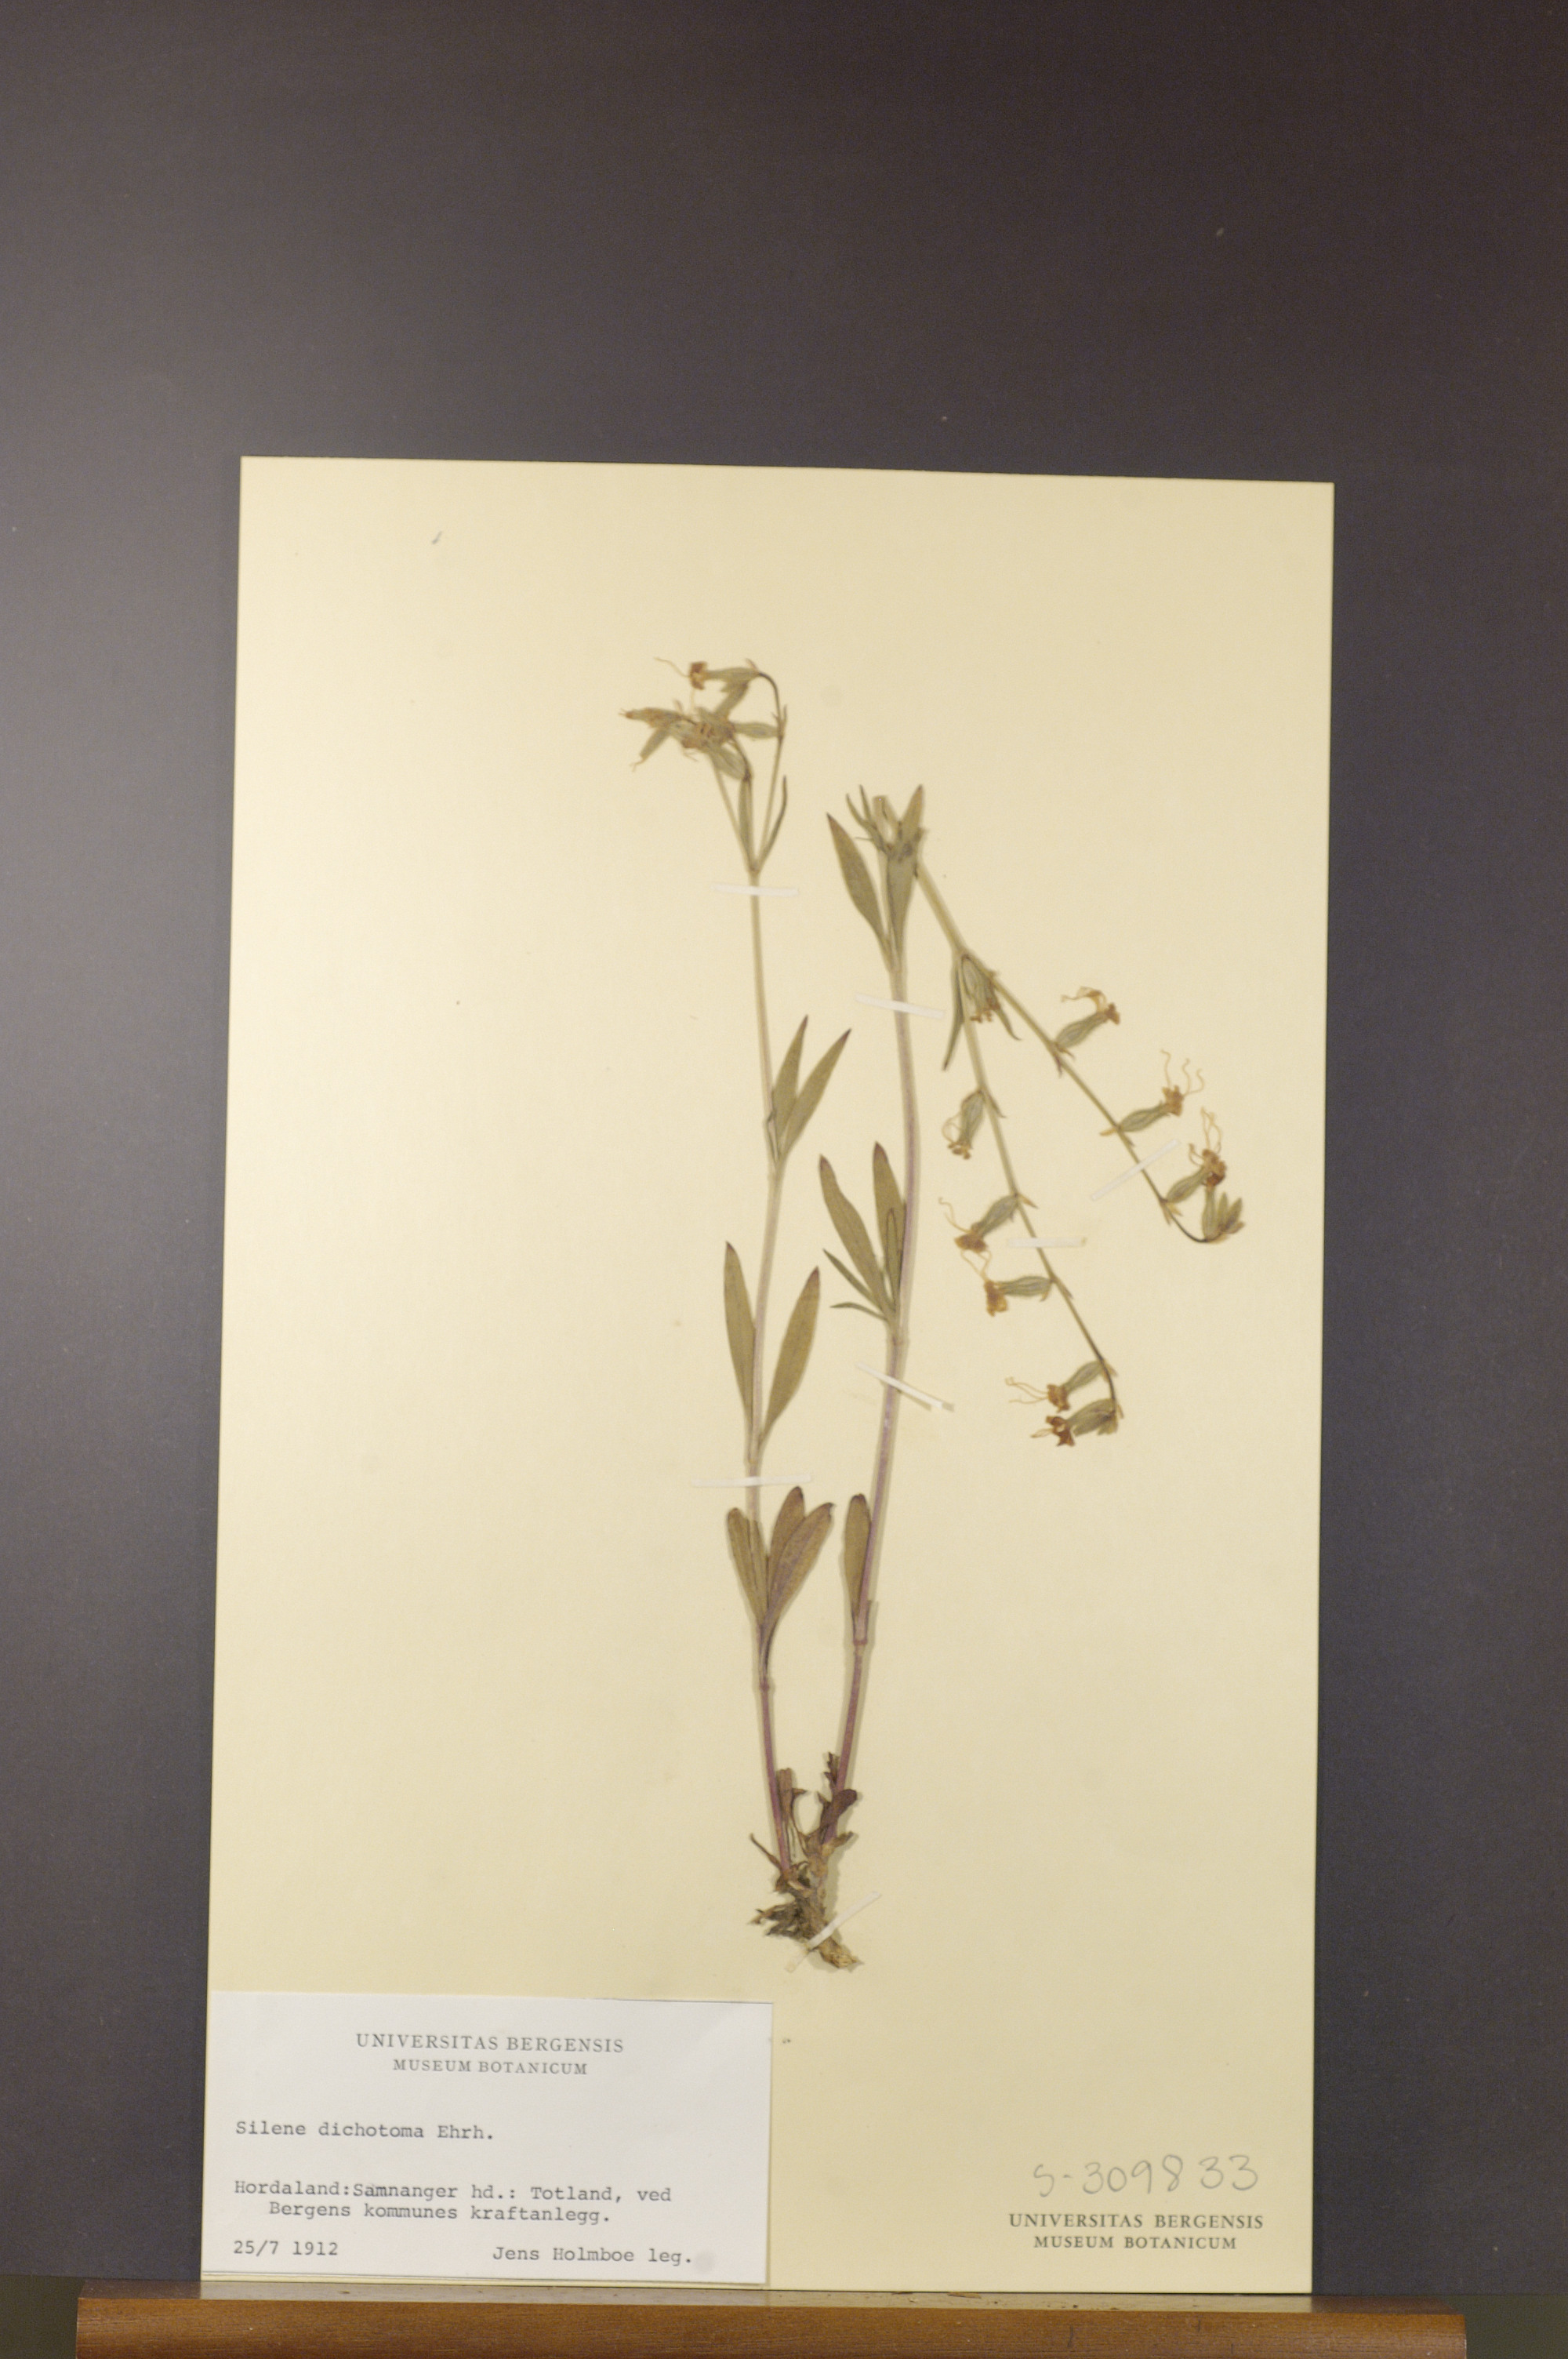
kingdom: Plantae
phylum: Tracheophyta
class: Magnoliopsida
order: Caryophyllales
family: Caryophyllaceae
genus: Silene
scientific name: Silene dichotoma
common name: Forked catchfly
